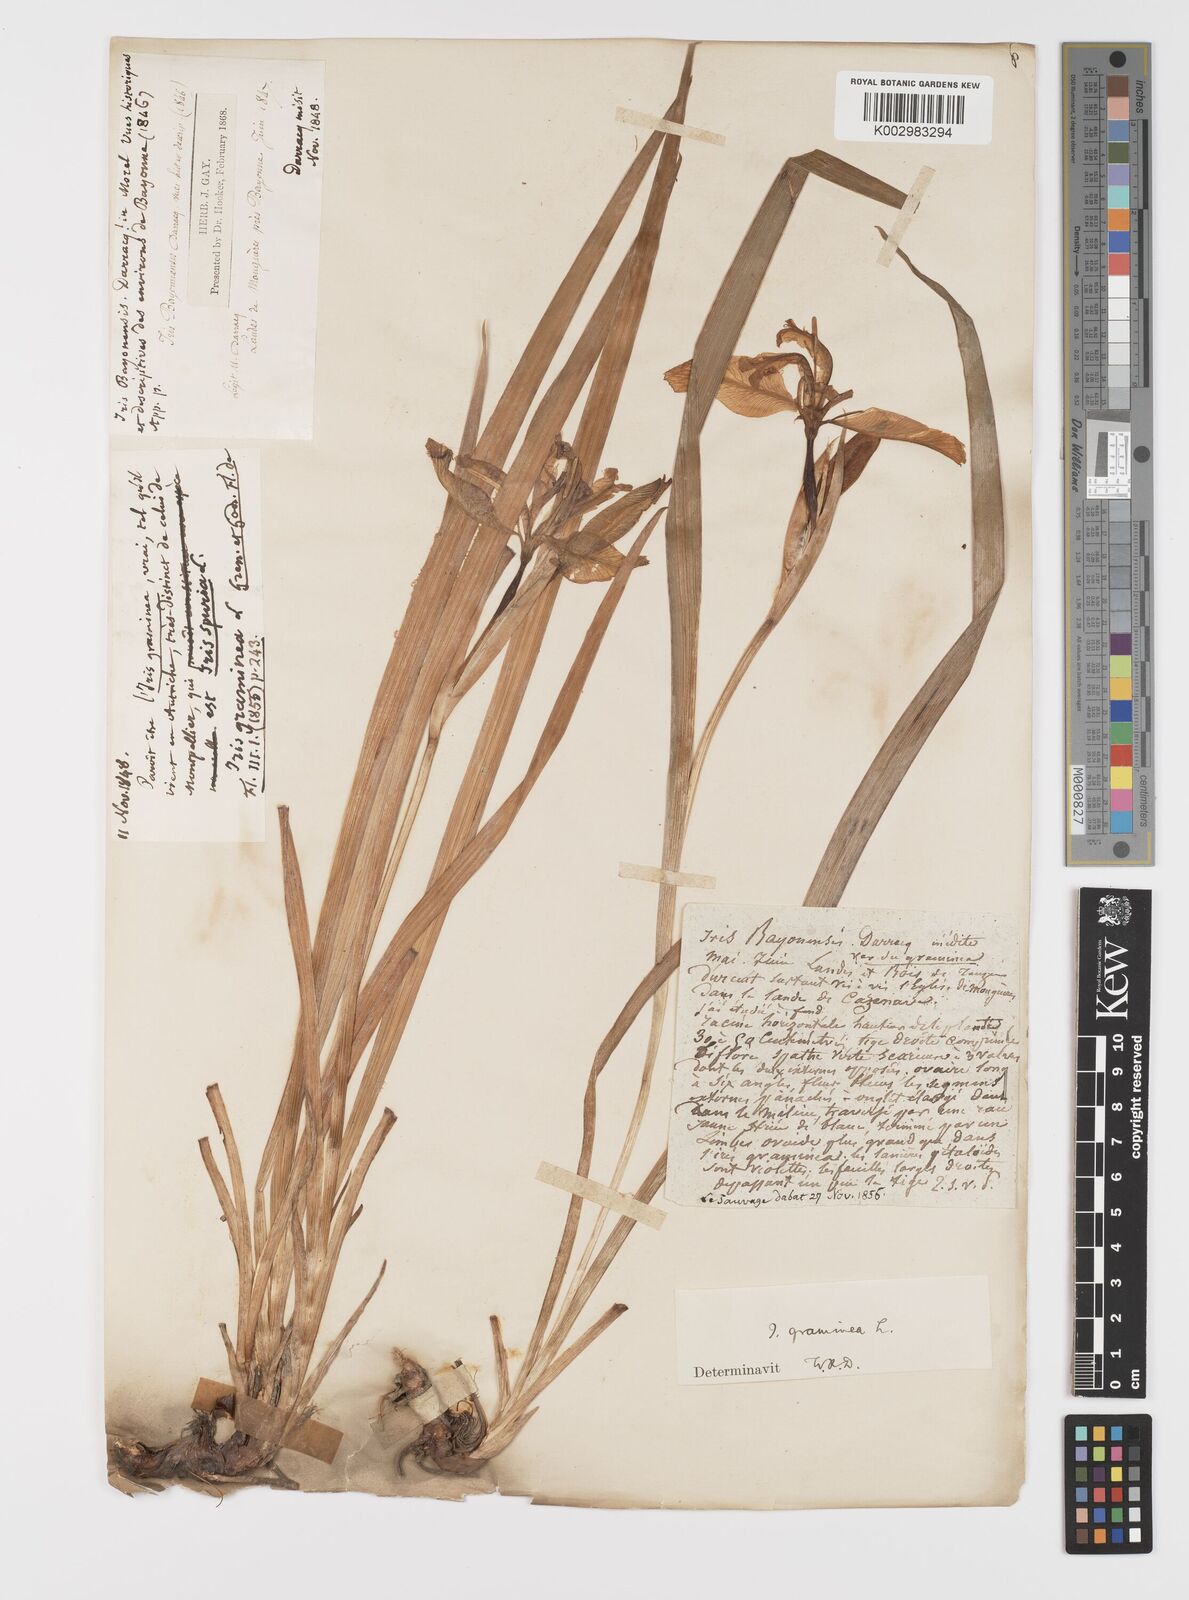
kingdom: Plantae
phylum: Tracheophyta
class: Liliopsida
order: Asparagales
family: Iridaceae
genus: Iris
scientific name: Iris graminea
